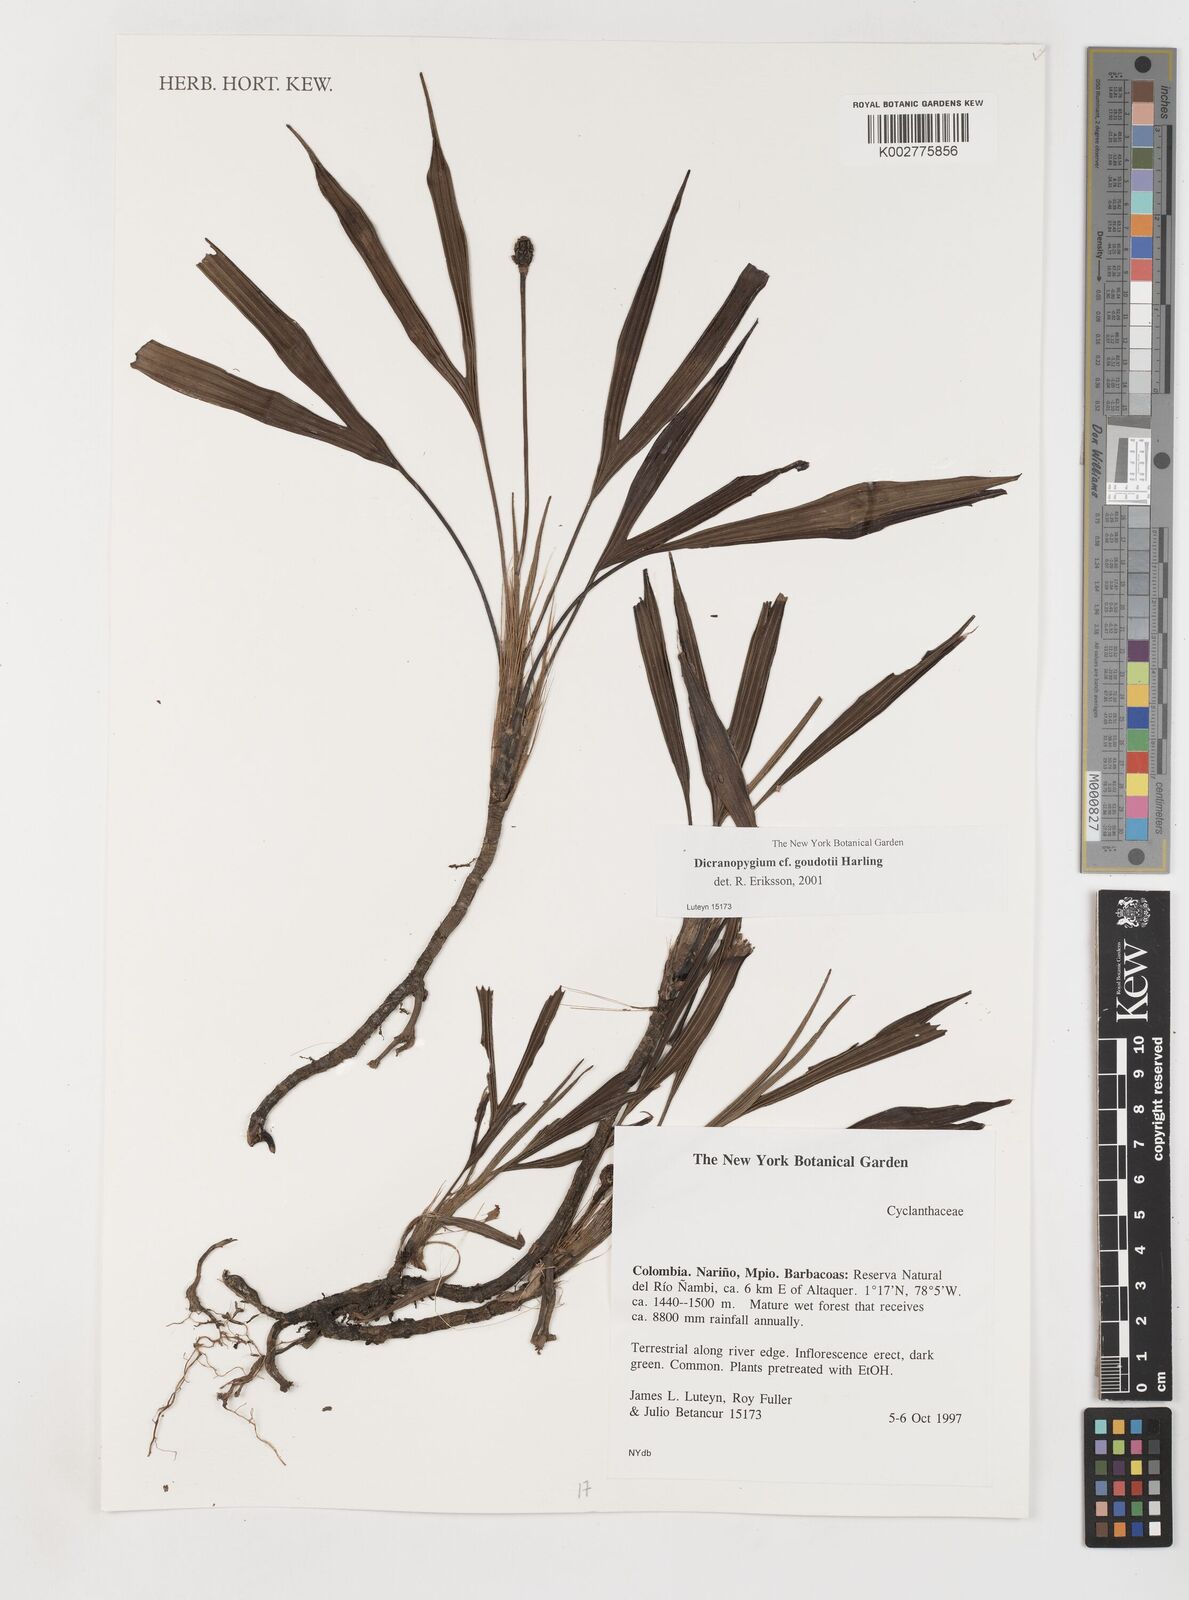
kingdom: Plantae
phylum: Tracheophyta
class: Liliopsida
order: Pandanales
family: Cyclanthaceae
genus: Dicranopygium
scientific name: Dicranopygium goudotii
